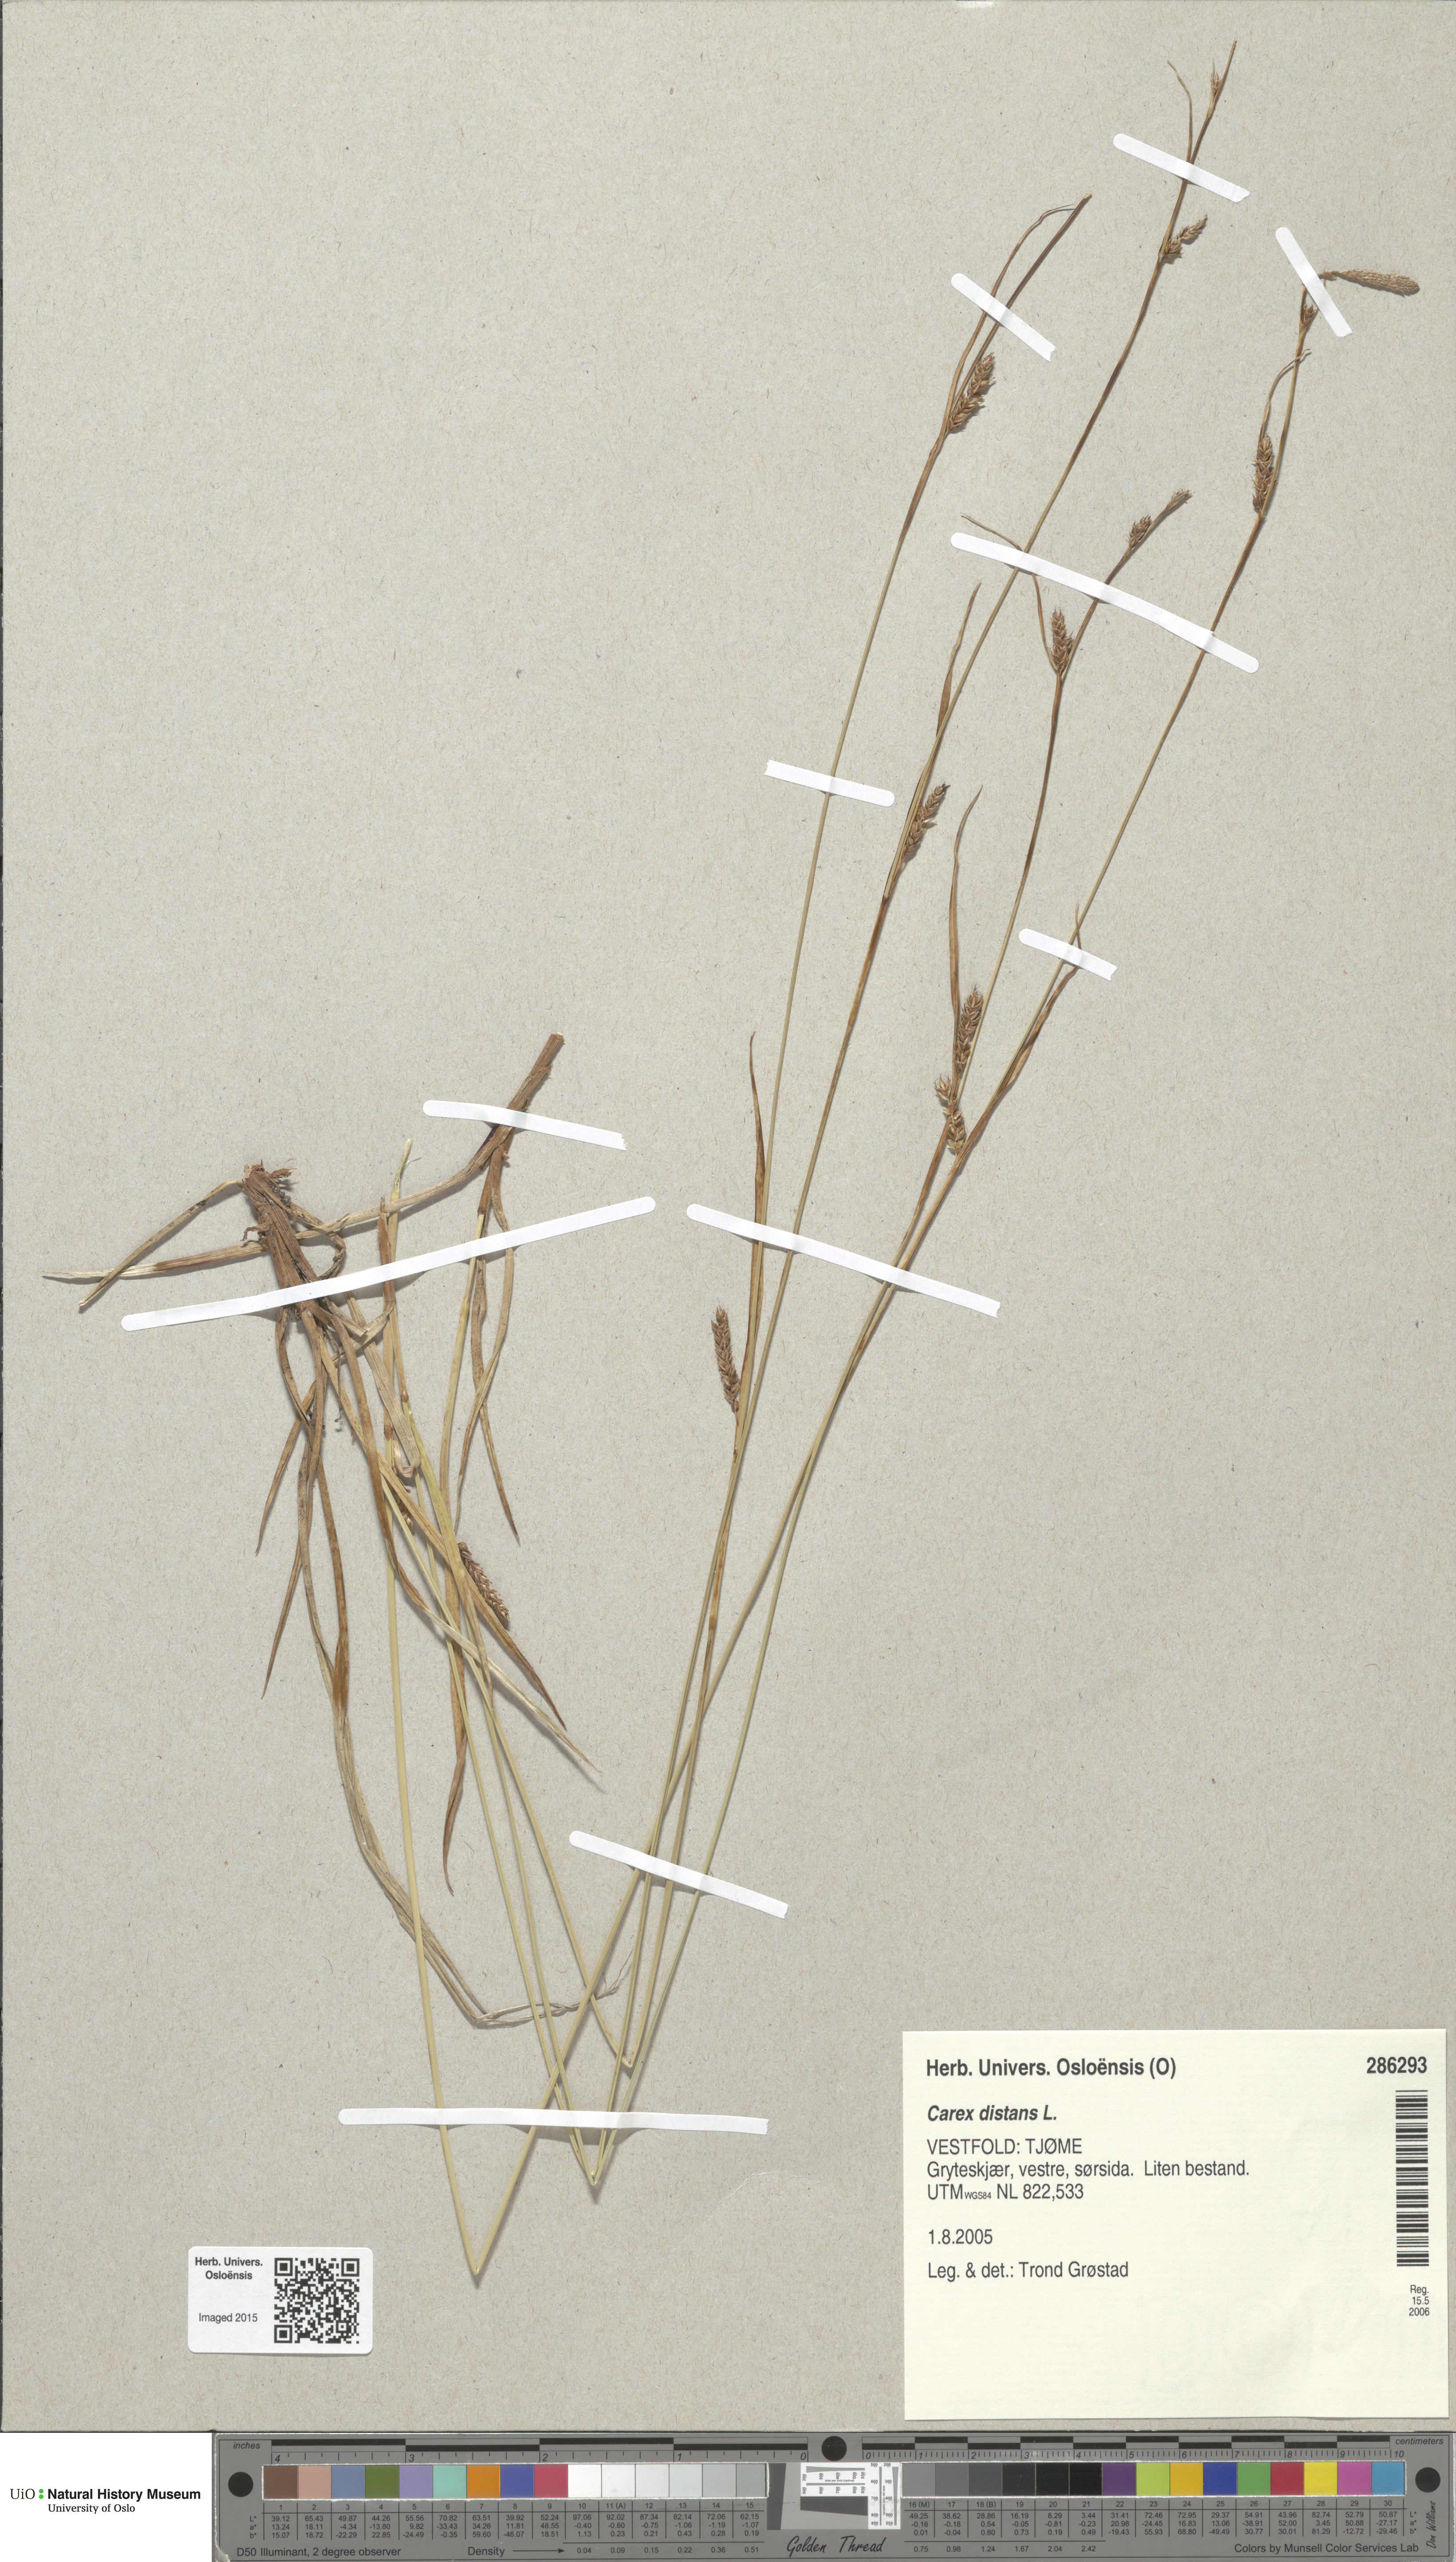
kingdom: Plantae
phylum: Tracheophyta
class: Liliopsida
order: Poales
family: Cyperaceae
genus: Carex
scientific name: Carex distans
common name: Distant sedge
